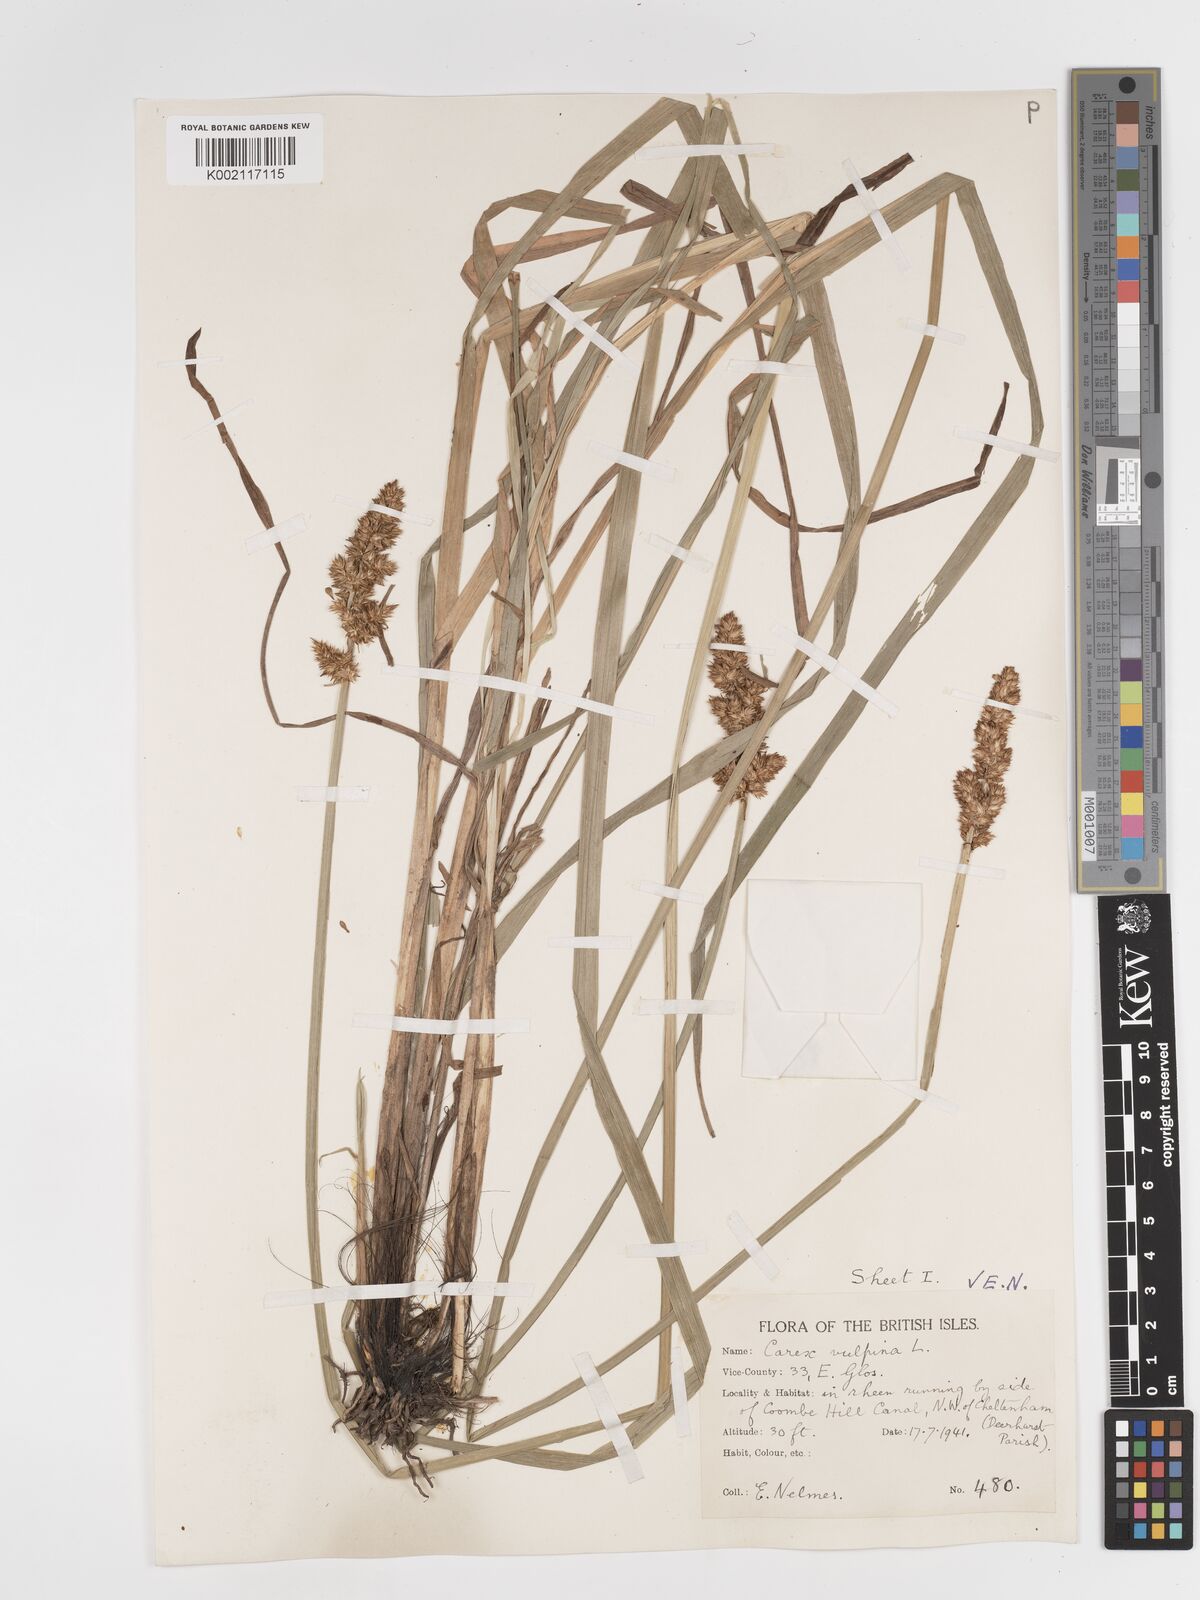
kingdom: Plantae
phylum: Tracheophyta
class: Liliopsida
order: Poales
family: Cyperaceae
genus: Carex
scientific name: Carex vulpina
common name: True fox-sedge
